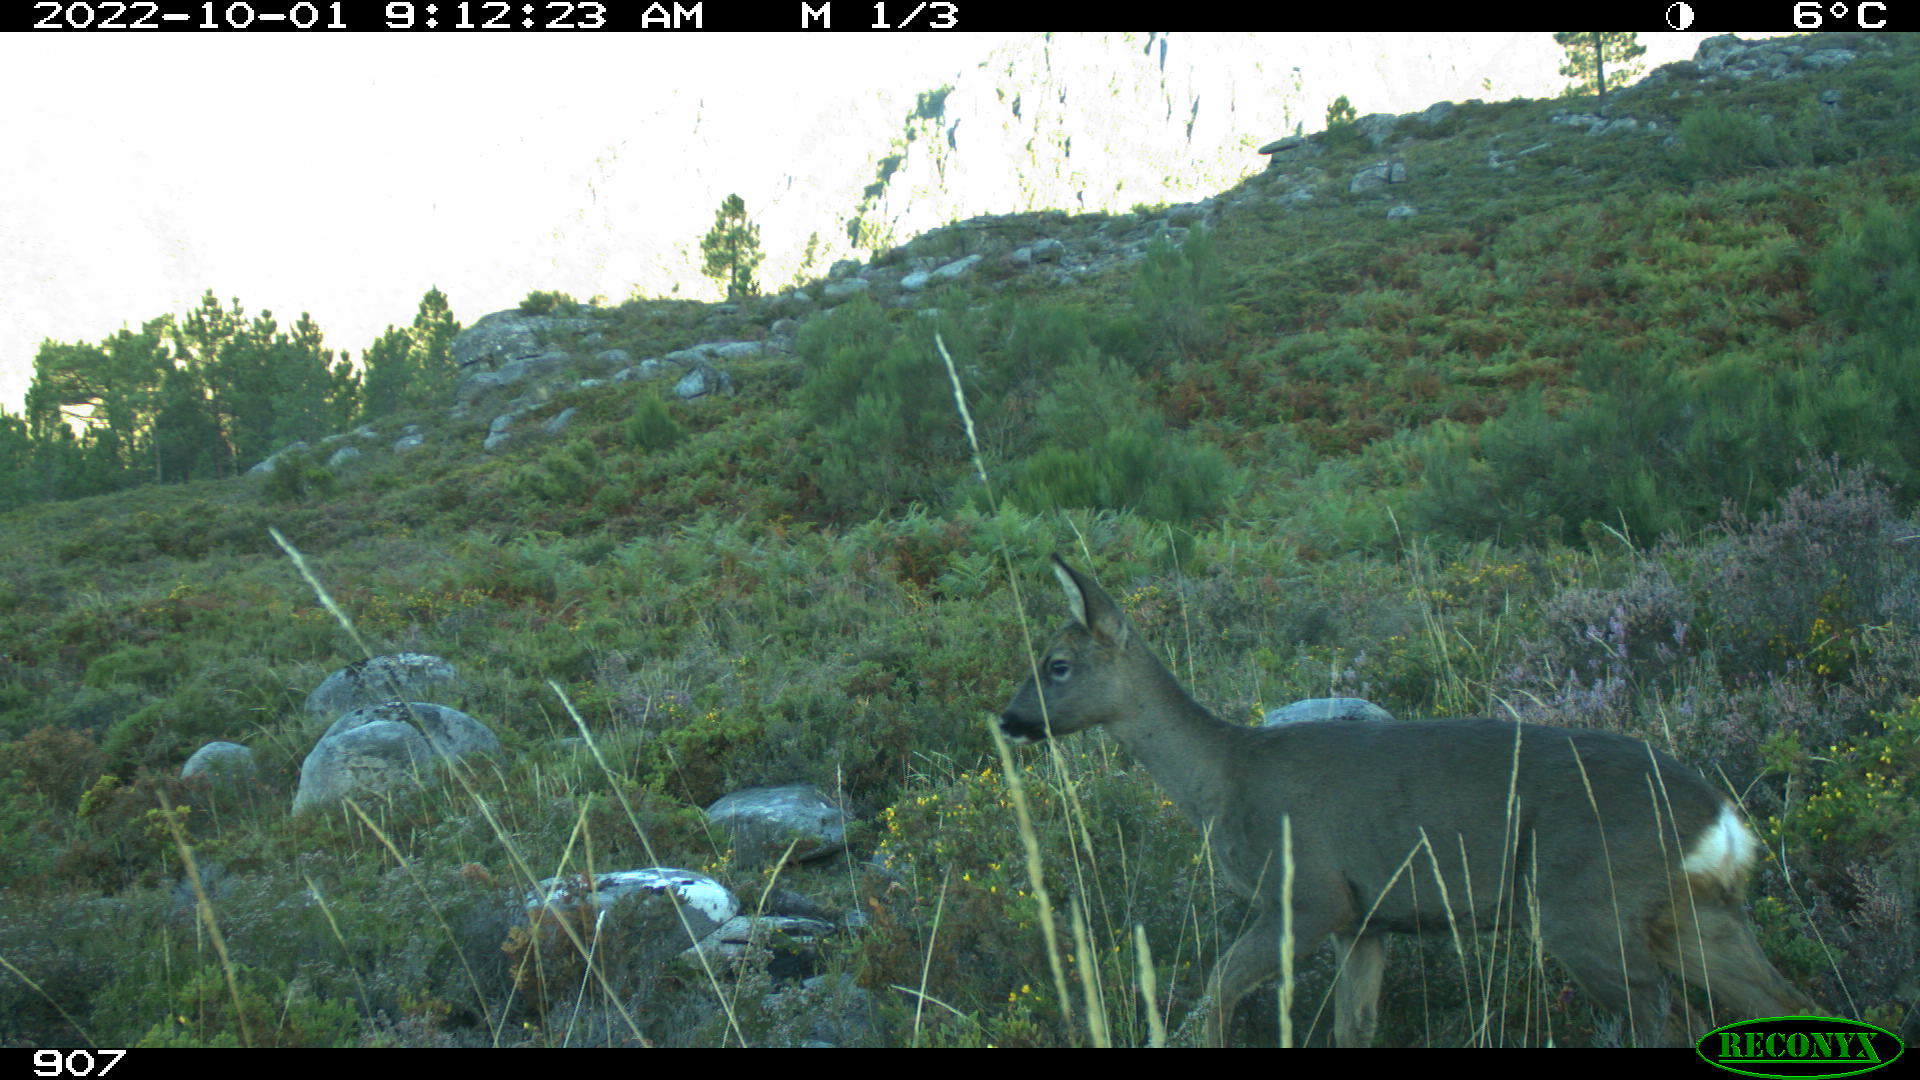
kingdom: Animalia
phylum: Chordata
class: Mammalia
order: Artiodactyla
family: Cervidae
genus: Capreolus
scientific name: Capreolus capreolus
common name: Western roe deer
